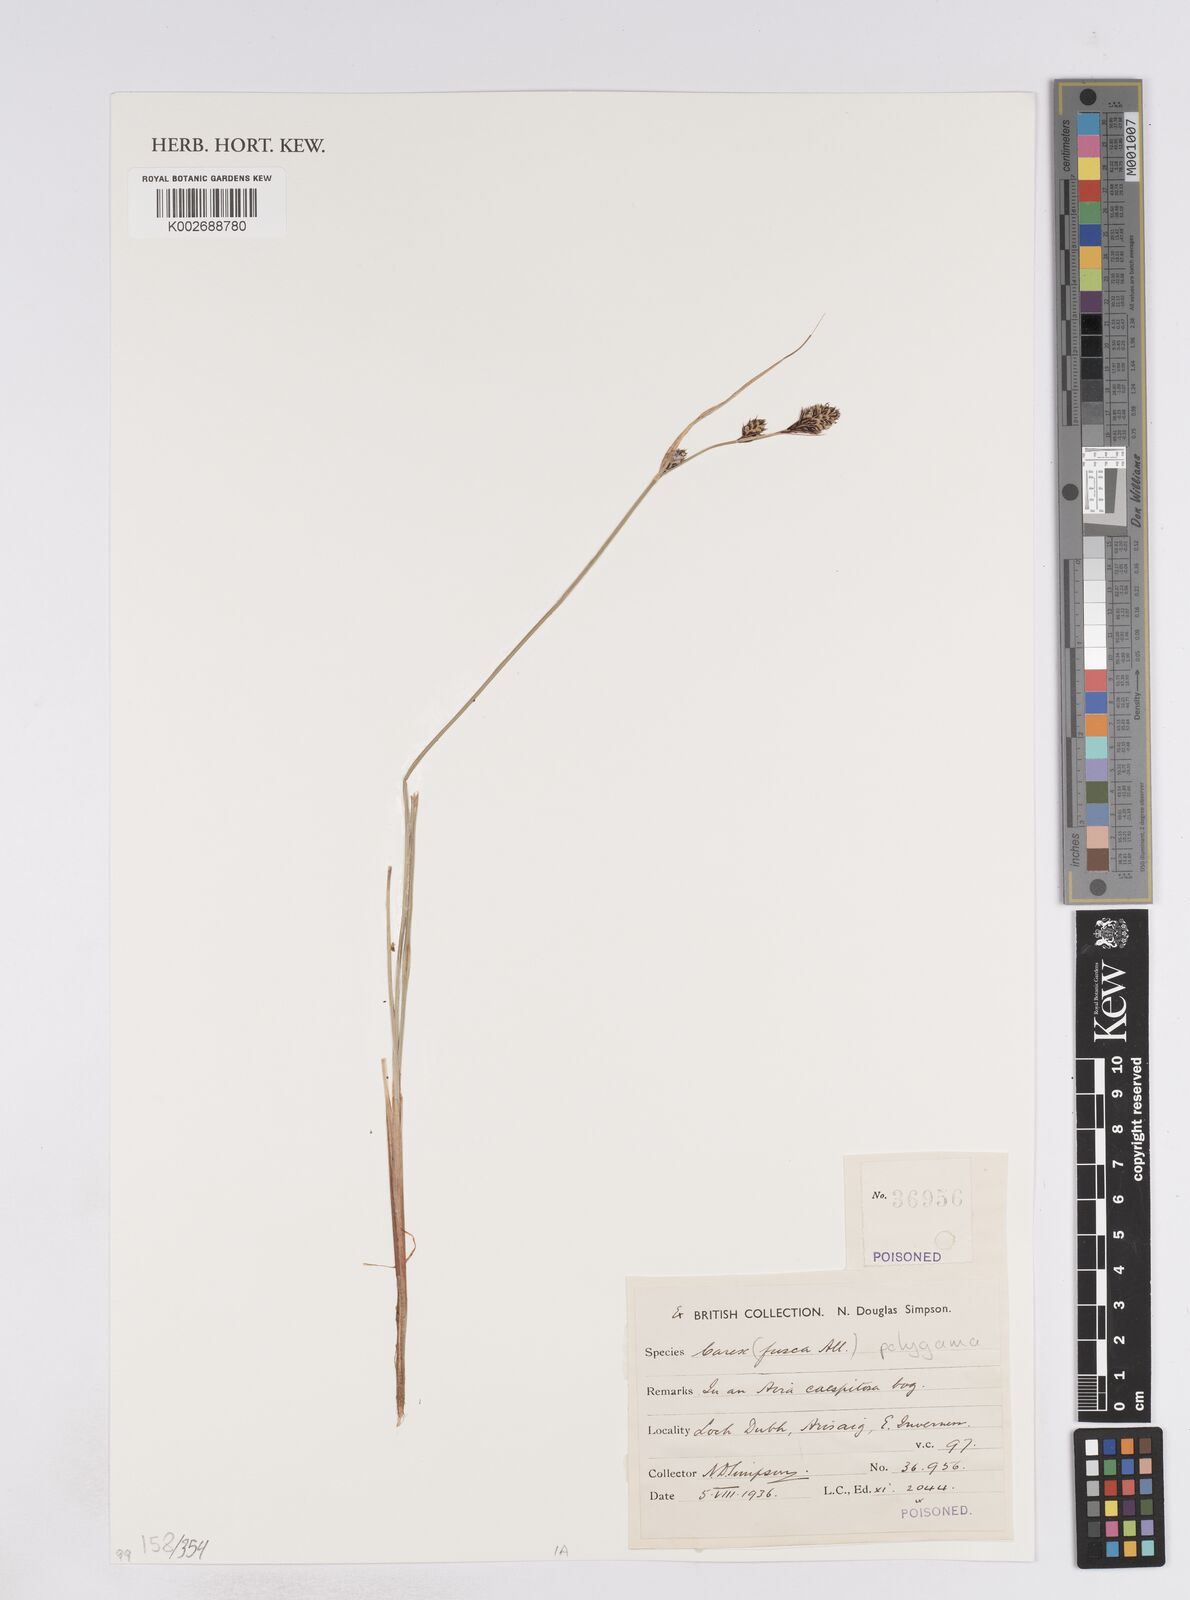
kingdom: Plantae
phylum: Tracheophyta
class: Liliopsida
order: Poales
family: Cyperaceae
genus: Carex
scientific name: Carex buxbaumii
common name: Club sedge
